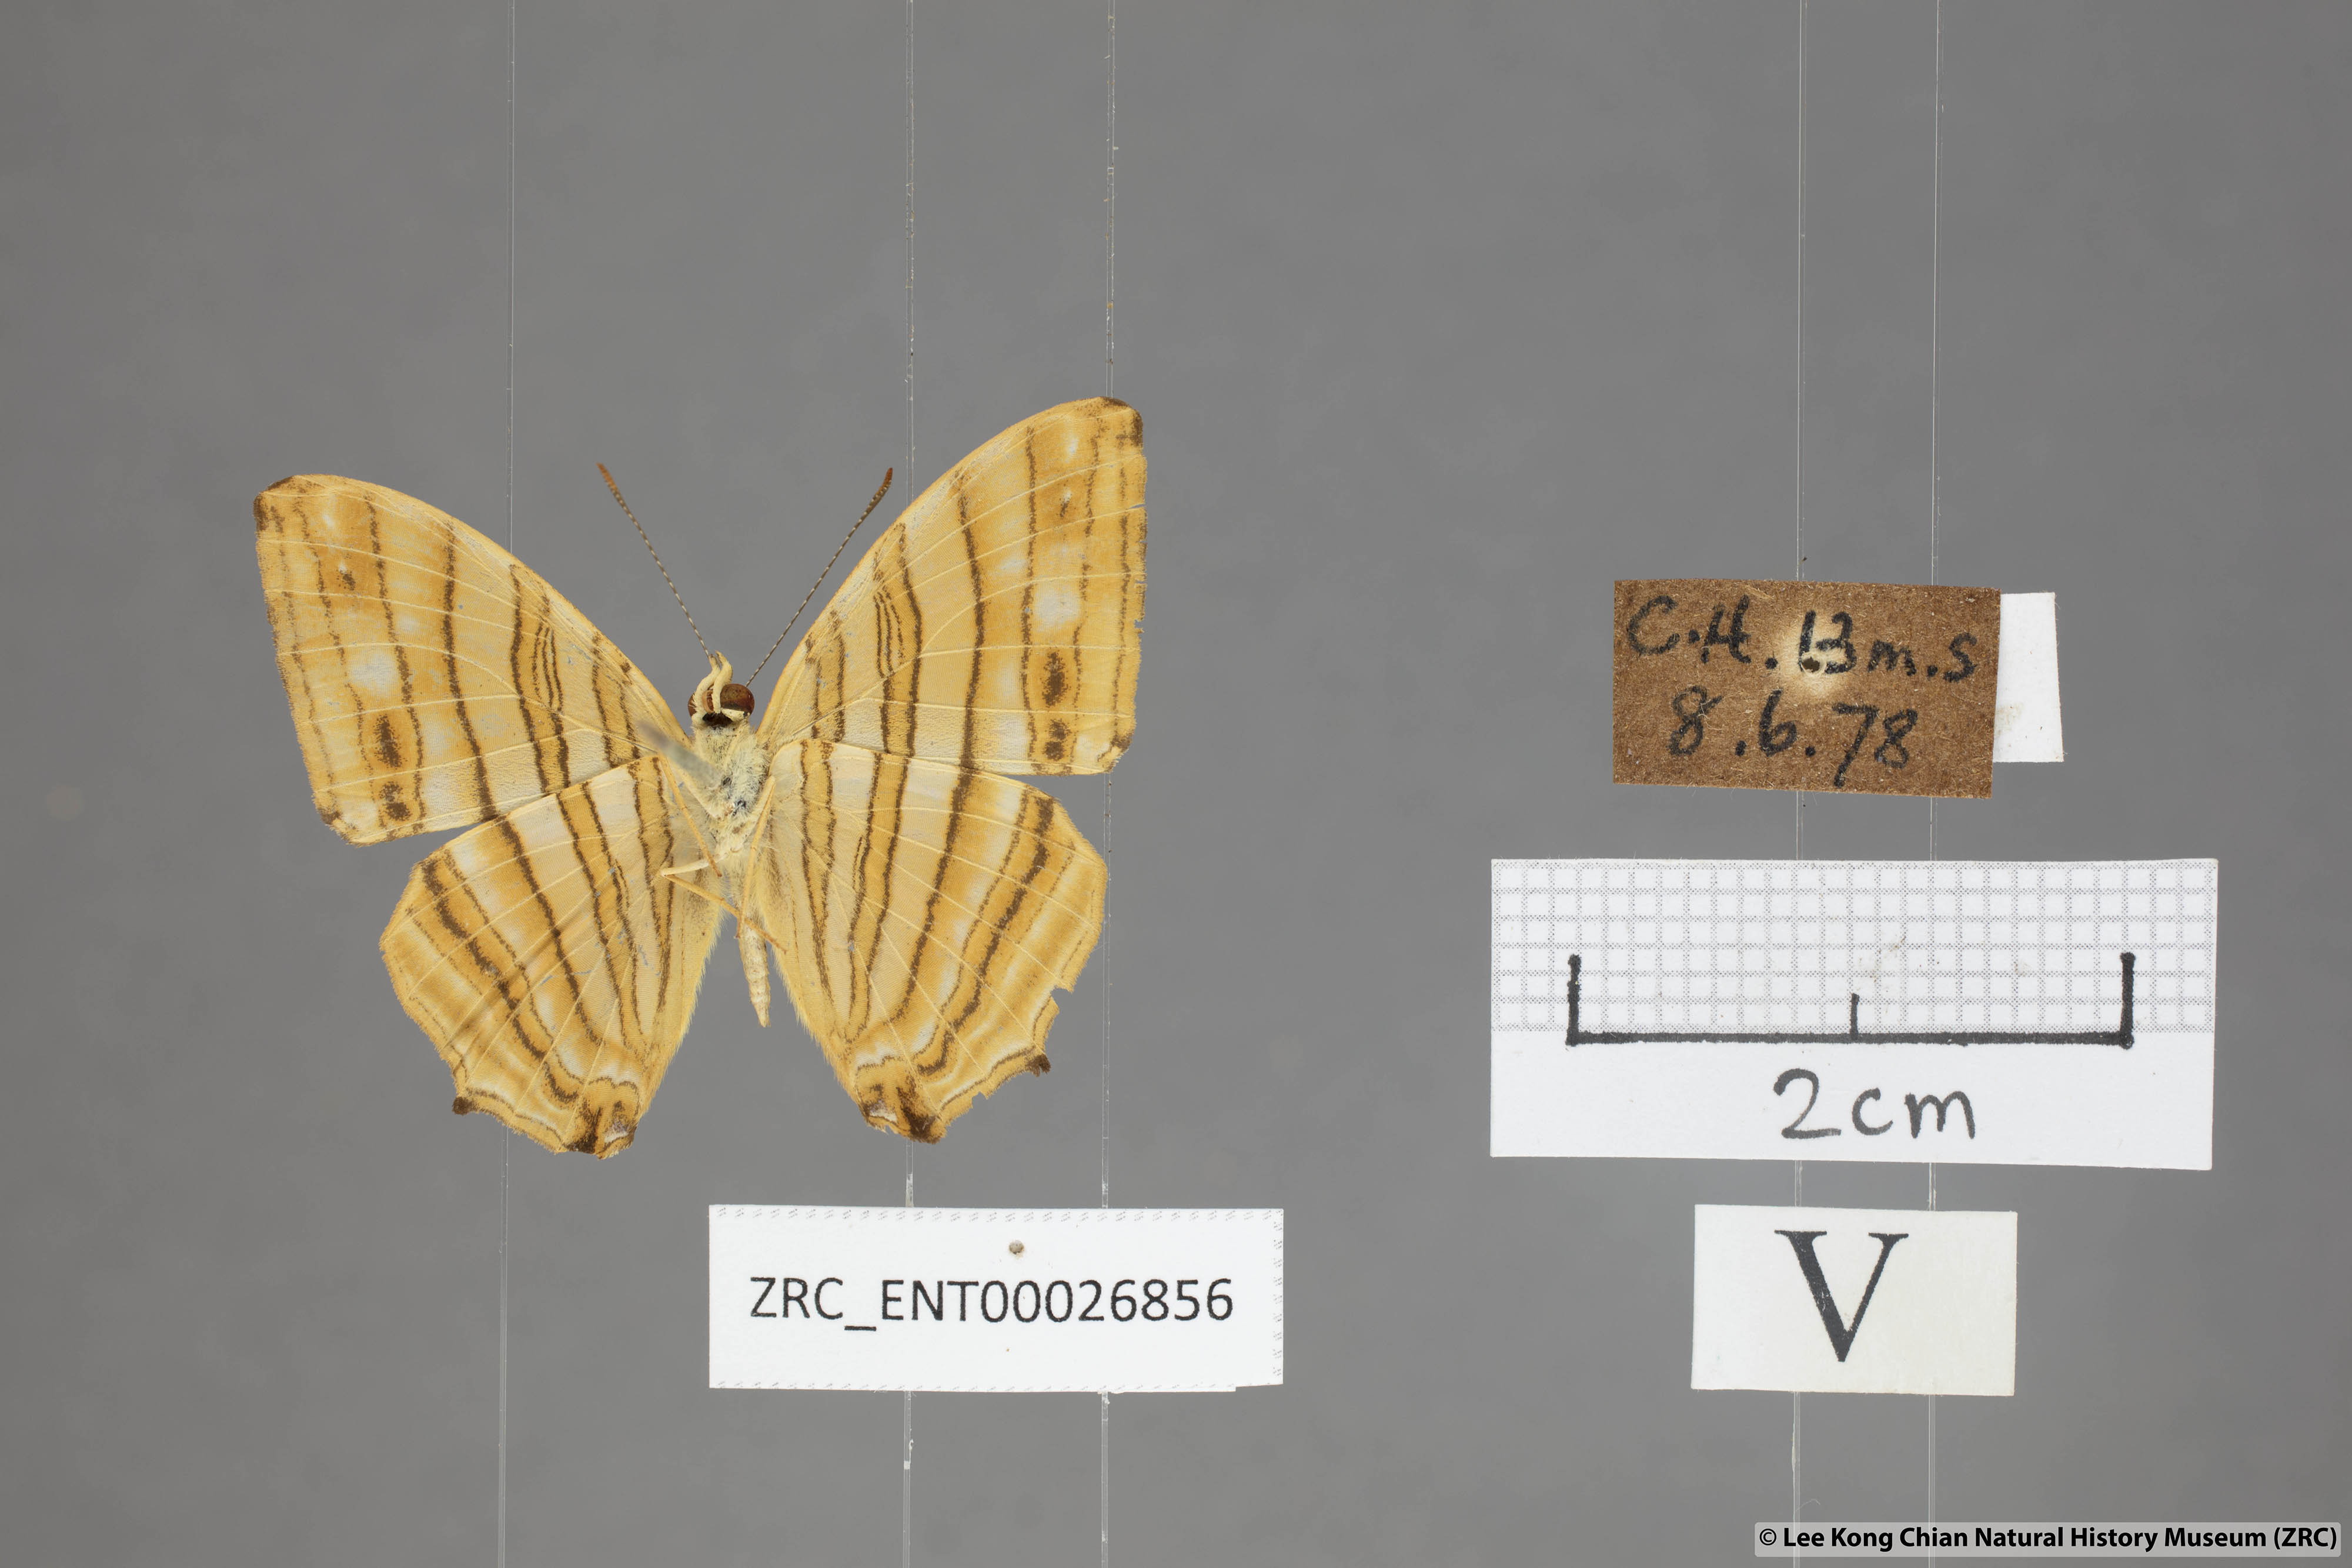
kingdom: Animalia
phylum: Arthropoda
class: Insecta
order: Lepidoptera
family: Nymphalidae
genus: Chersonesia
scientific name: Chersonesia risa
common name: Common maplet
